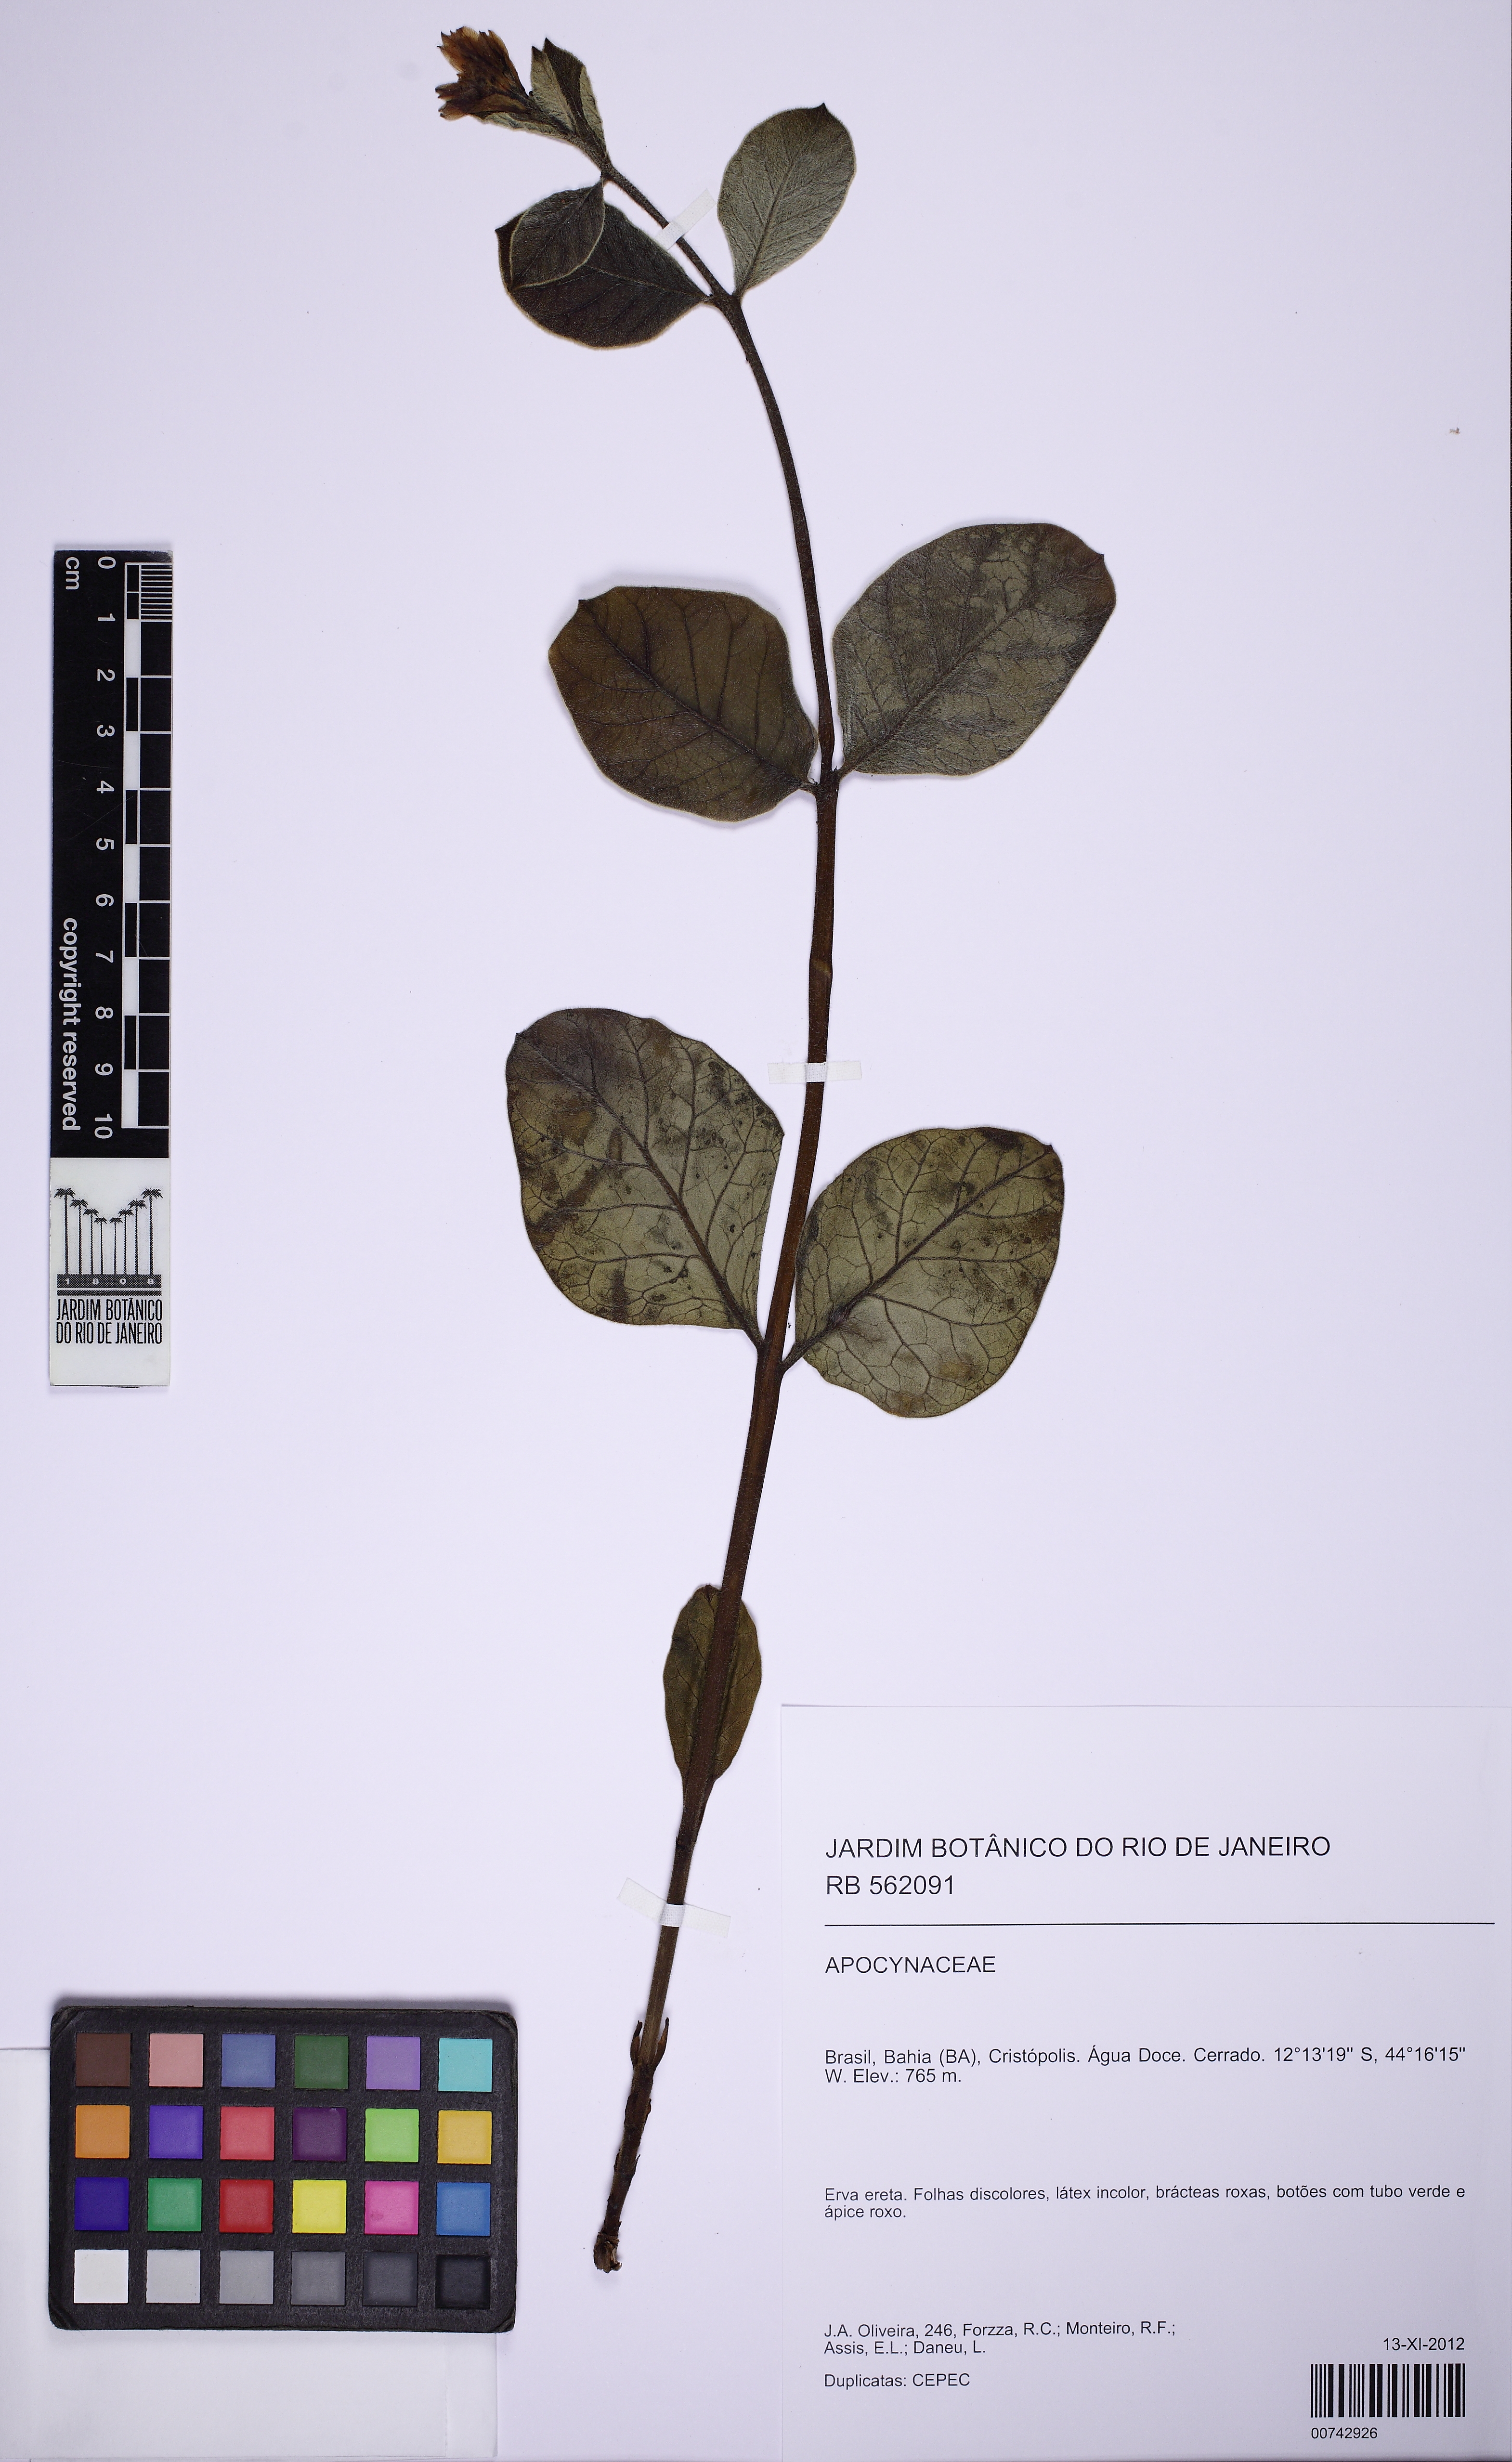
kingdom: Plantae
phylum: Tracheophyta
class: Magnoliopsida
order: Gentianales
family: Apocynaceae
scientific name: Apocynaceae
